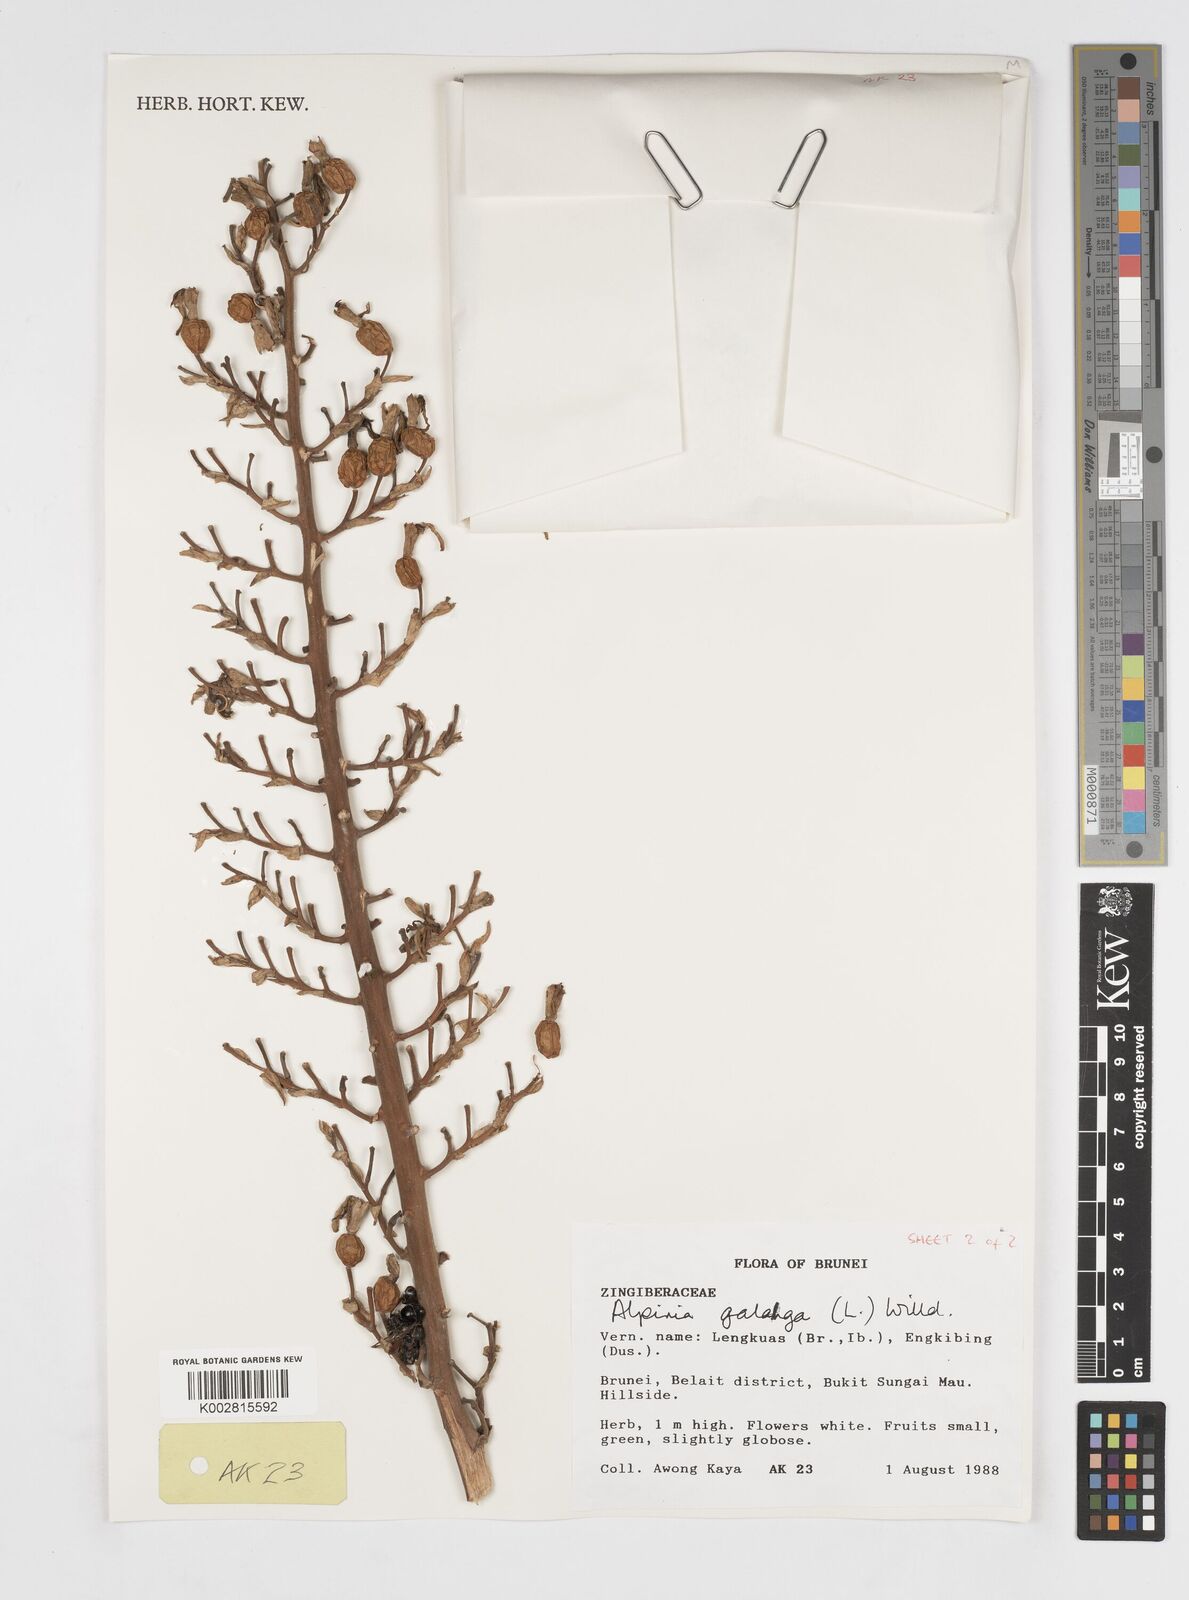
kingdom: Plantae
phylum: Tracheophyta
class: Liliopsida
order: Zingiberales
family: Zingiberaceae
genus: Alpinia
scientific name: Alpinia galanga
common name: Siamese-ginger
